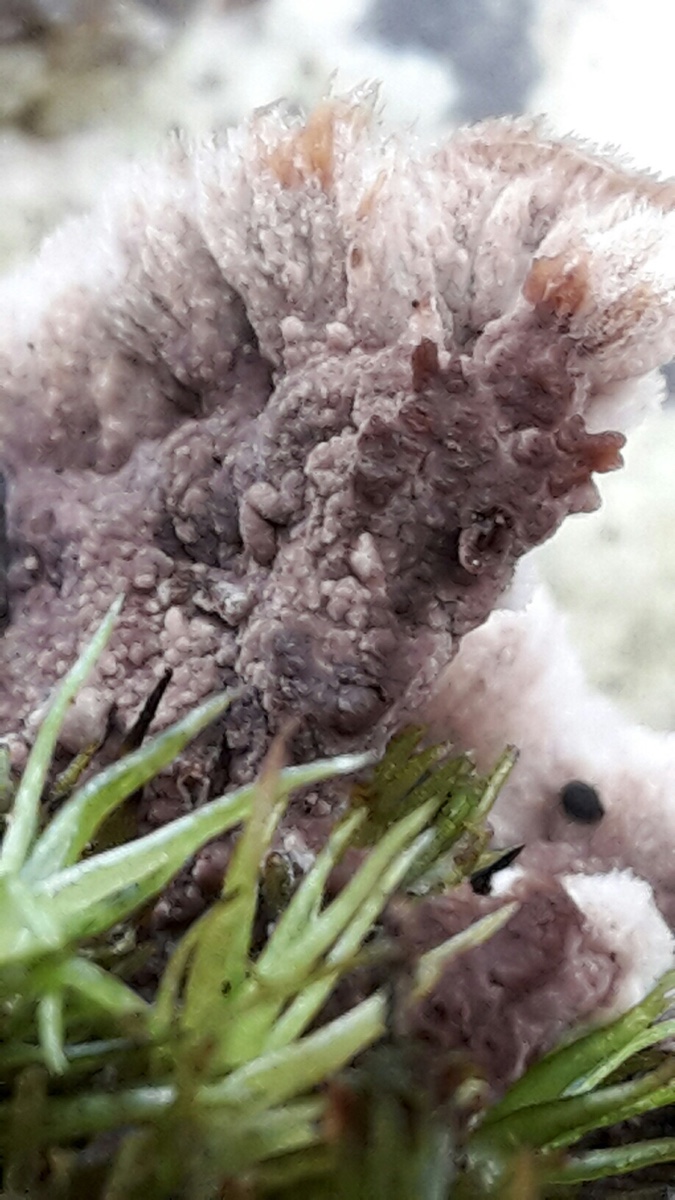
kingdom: Fungi
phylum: Basidiomycota
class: Agaricomycetes
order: Thelephorales
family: Thelephoraceae
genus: Thelephora
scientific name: Thelephora terrestris
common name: fliget frynsesvamp
